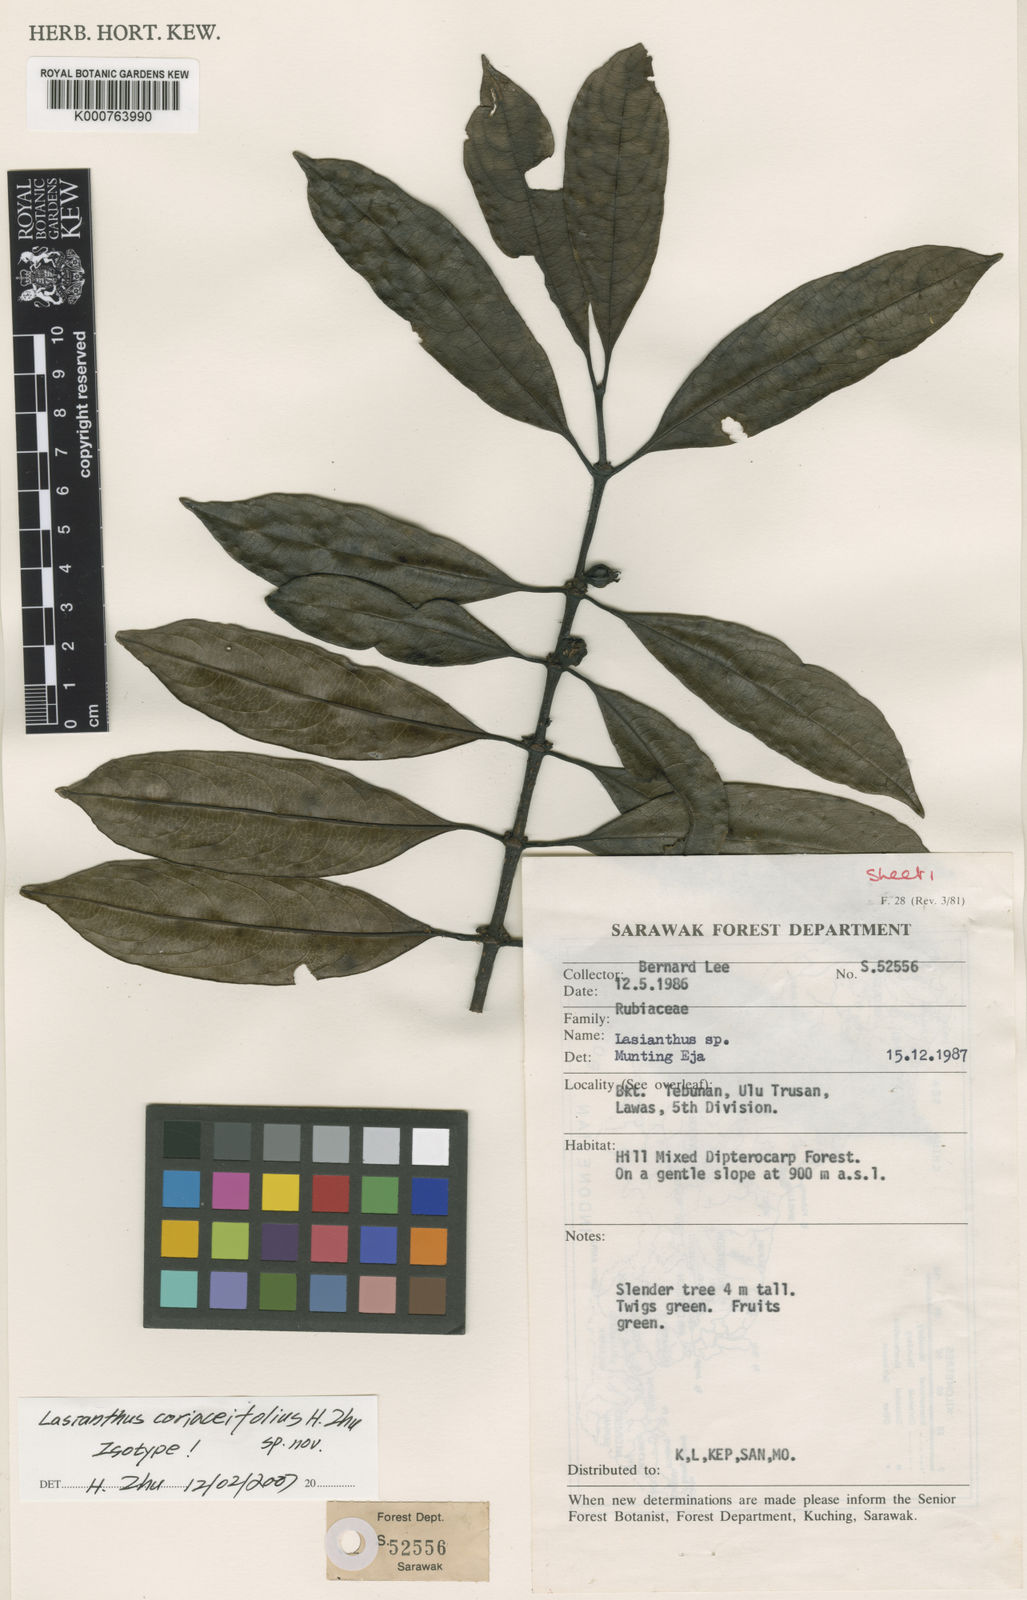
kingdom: Plantae
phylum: Tracheophyta
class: Magnoliopsida
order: Gentianales
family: Rubiaceae
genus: Lasianthus
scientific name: Lasianthus pergamaceus
